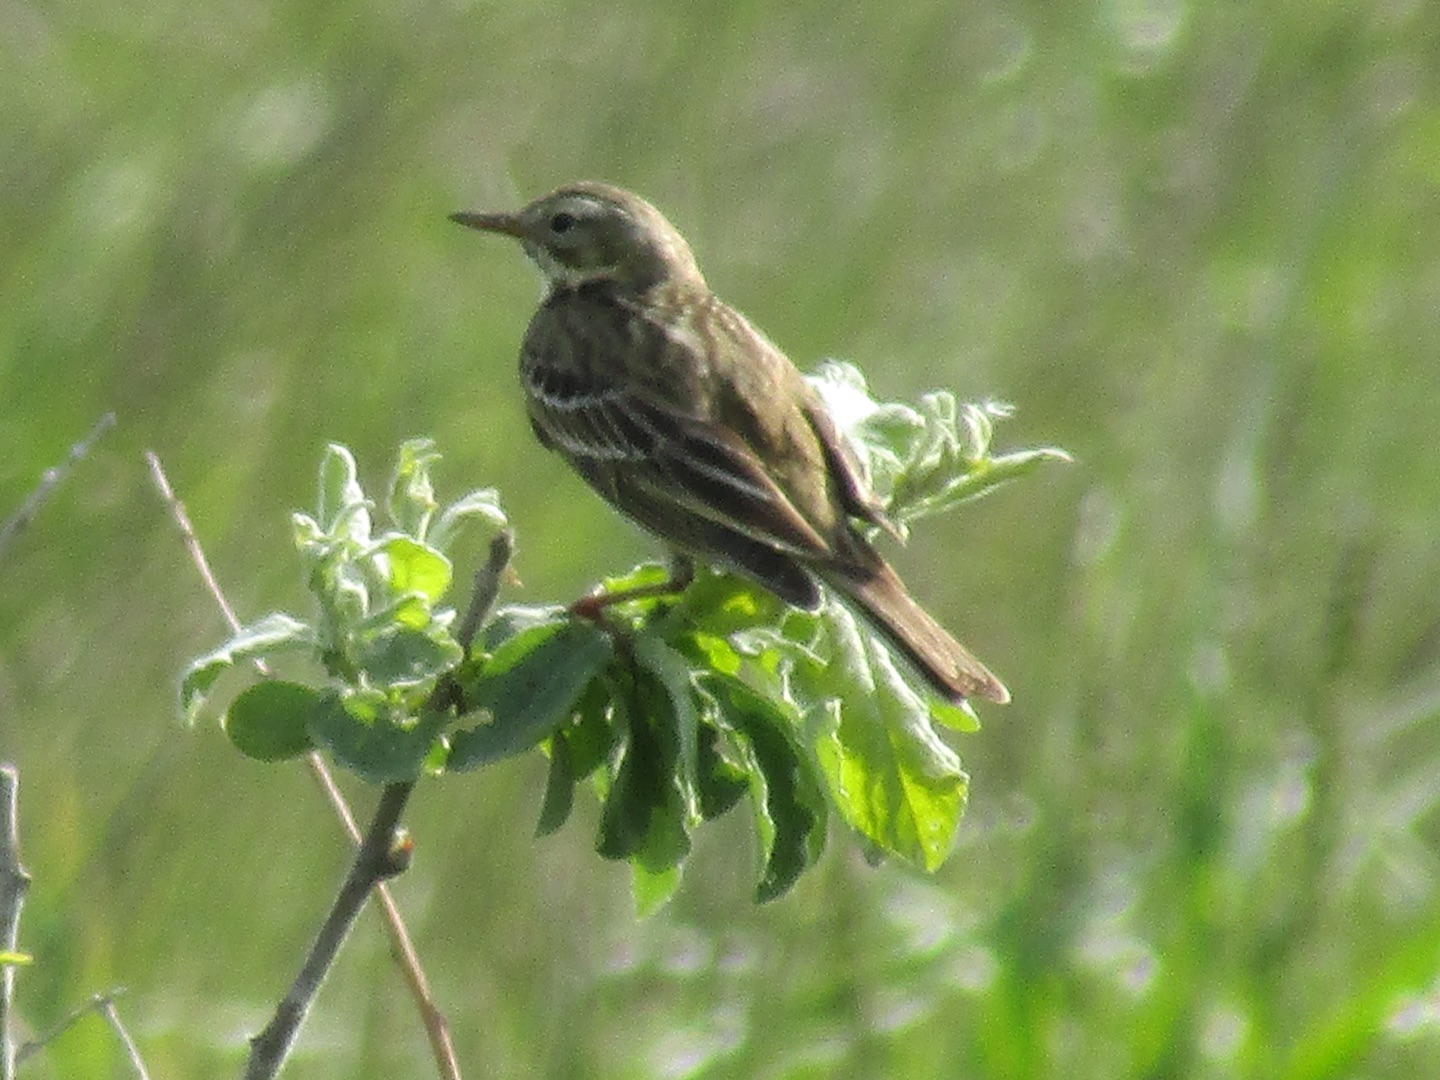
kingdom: Animalia
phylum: Chordata
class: Aves
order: Passeriformes
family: Motacillidae
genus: Anthus
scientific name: Anthus pratensis
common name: Engpiber
